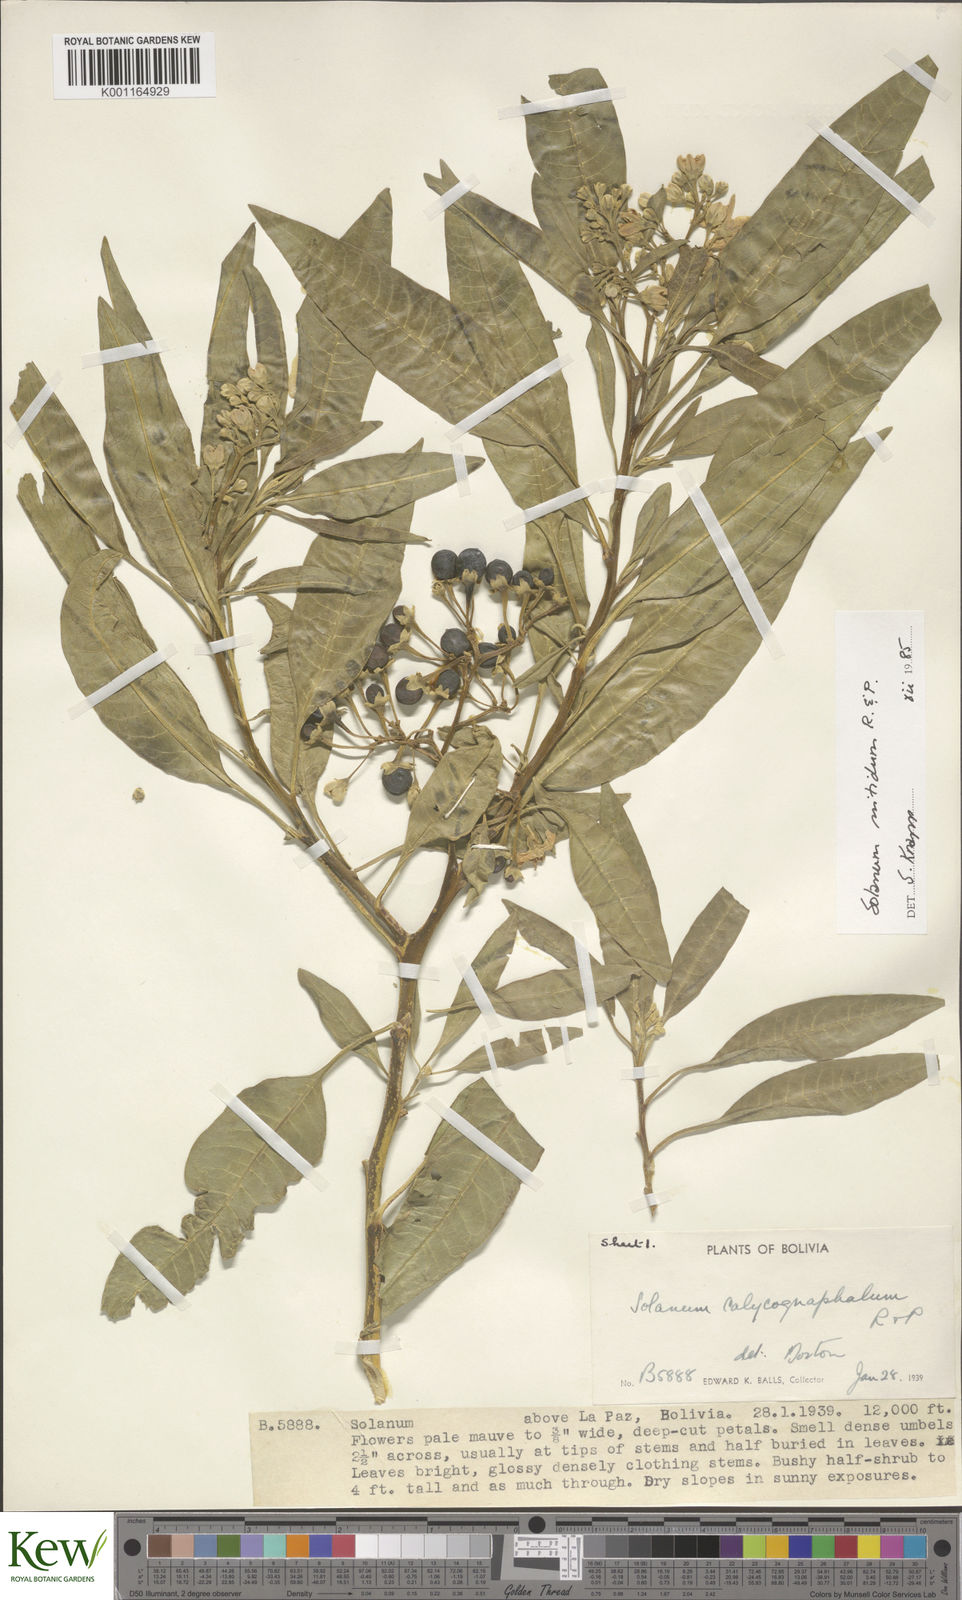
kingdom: Plantae
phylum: Tracheophyta
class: Magnoliopsida
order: Solanales
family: Solanaceae
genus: Solanum
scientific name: Solanum nitidum
